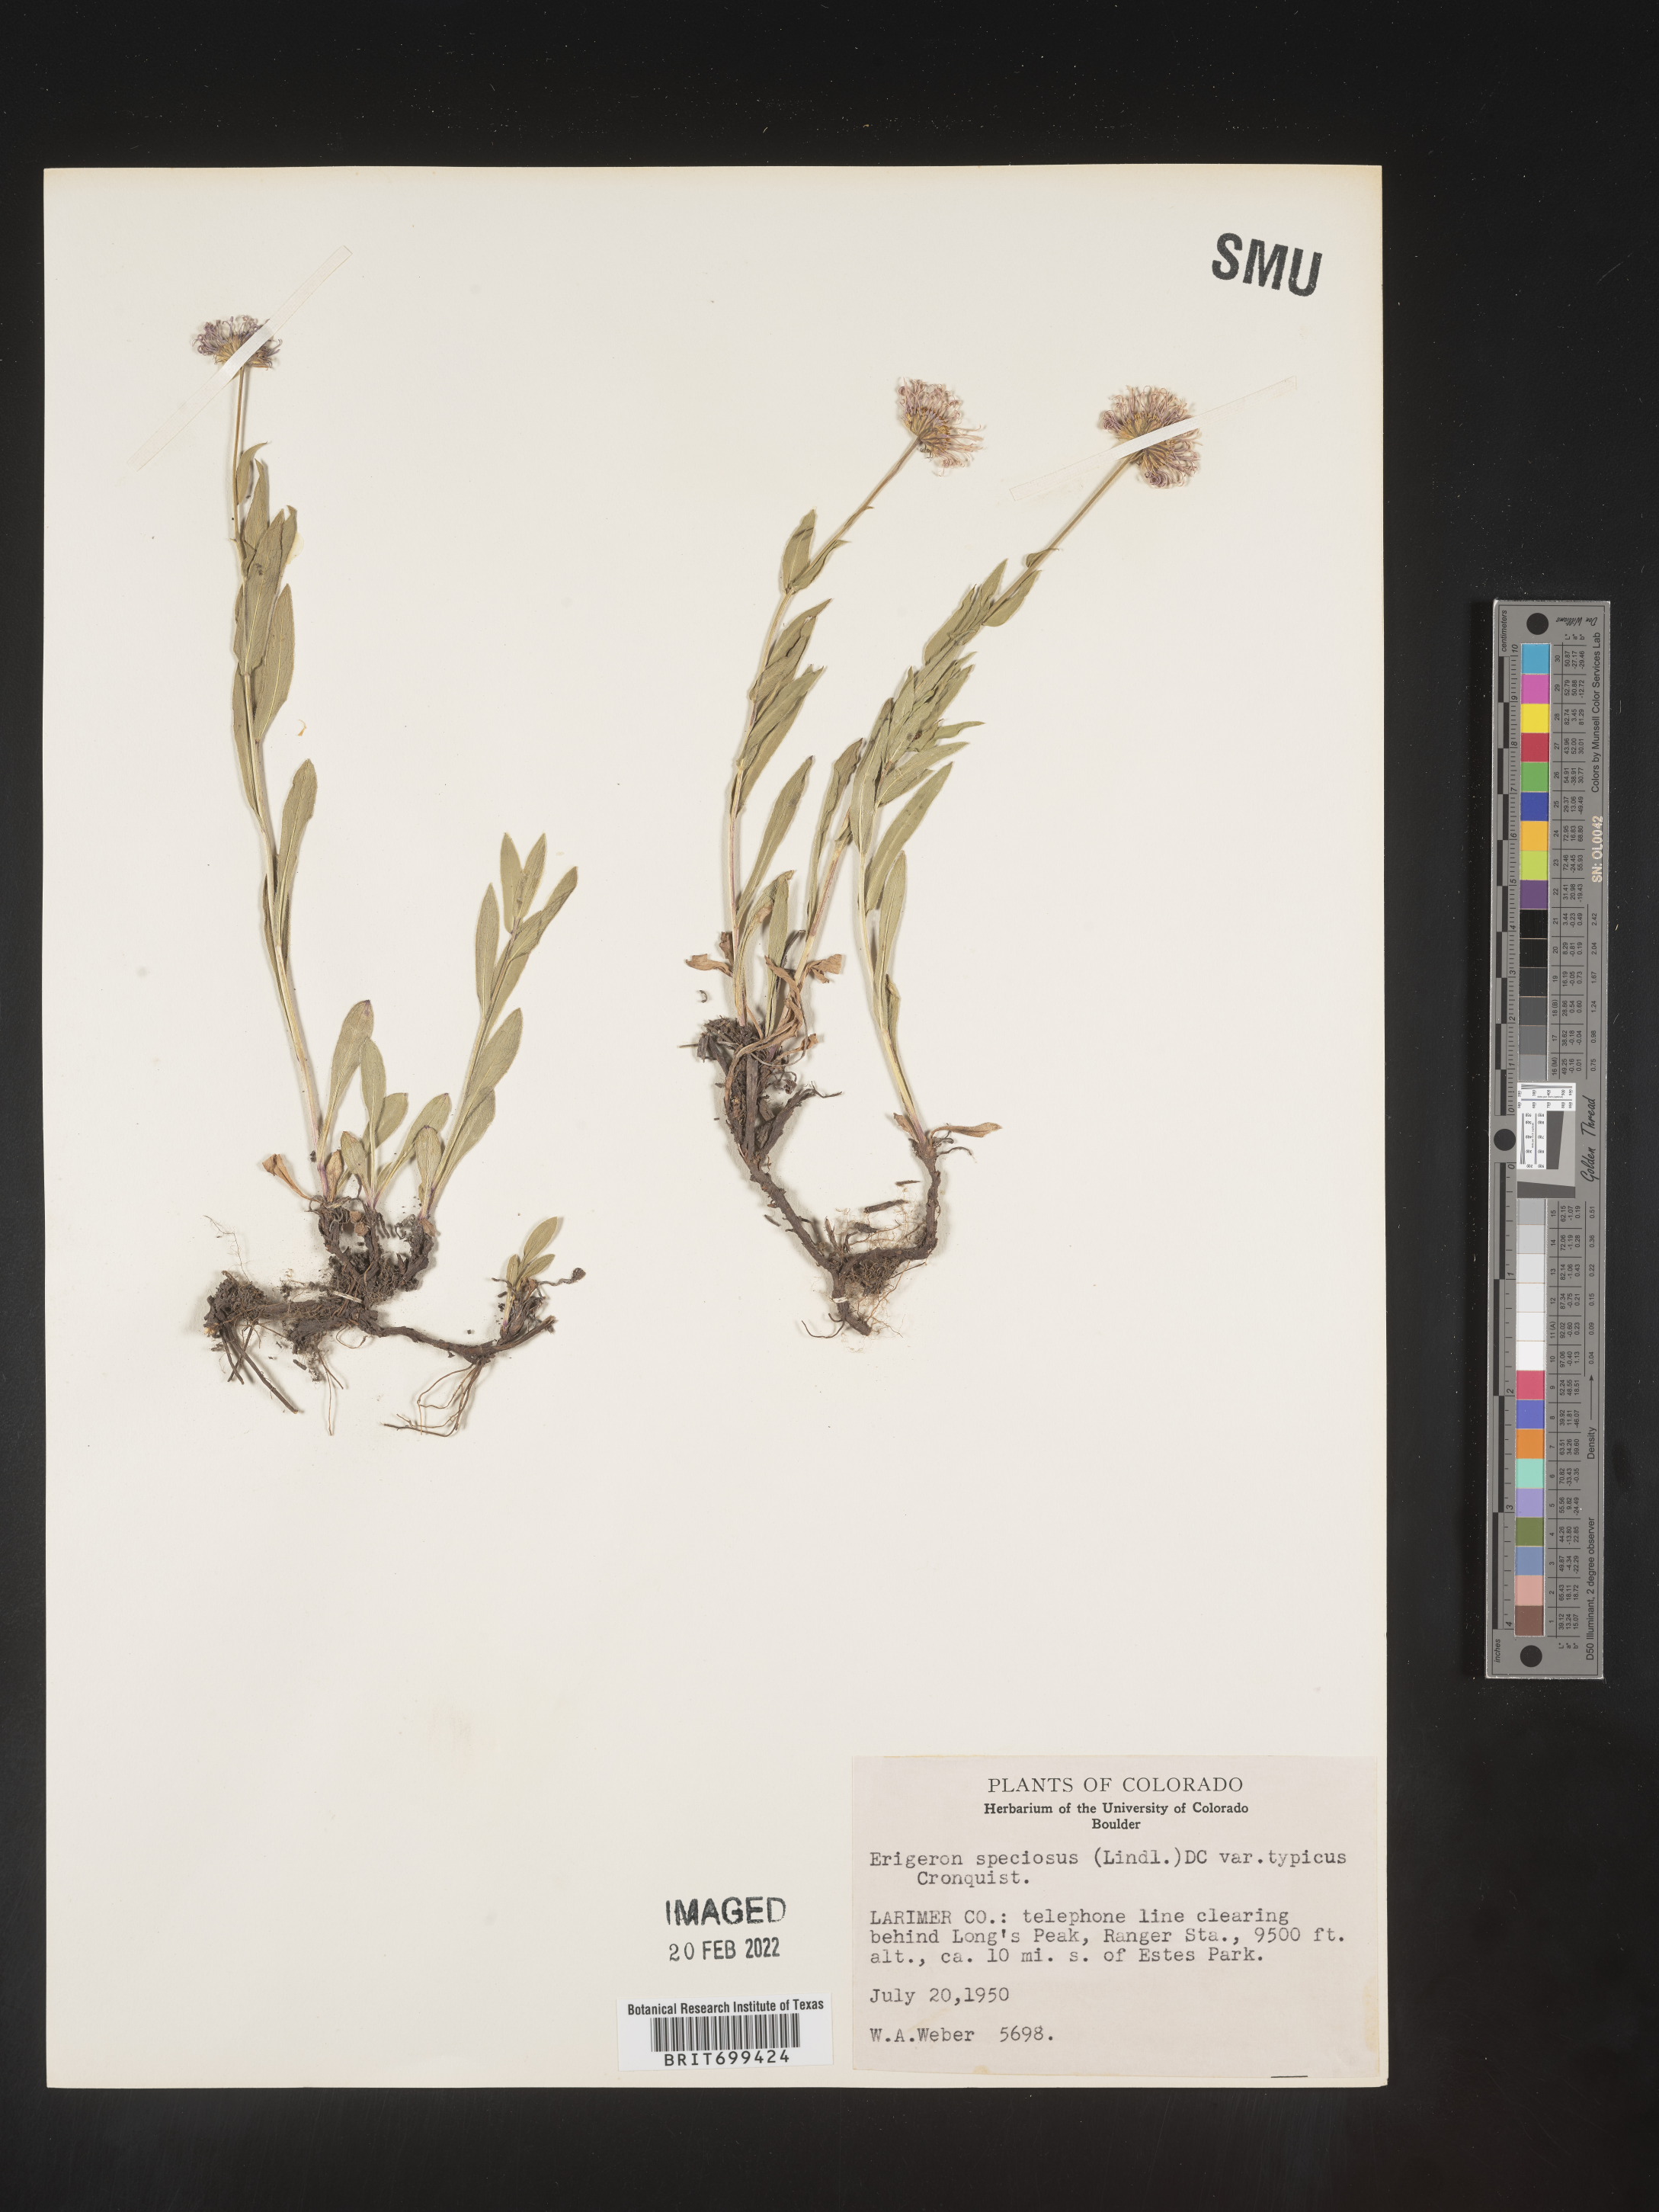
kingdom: Plantae
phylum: Tracheophyta
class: Magnoliopsida
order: Asterales
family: Asteraceae
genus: Erigeron
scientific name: Erigeron speciosus
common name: Aspen fleabane
